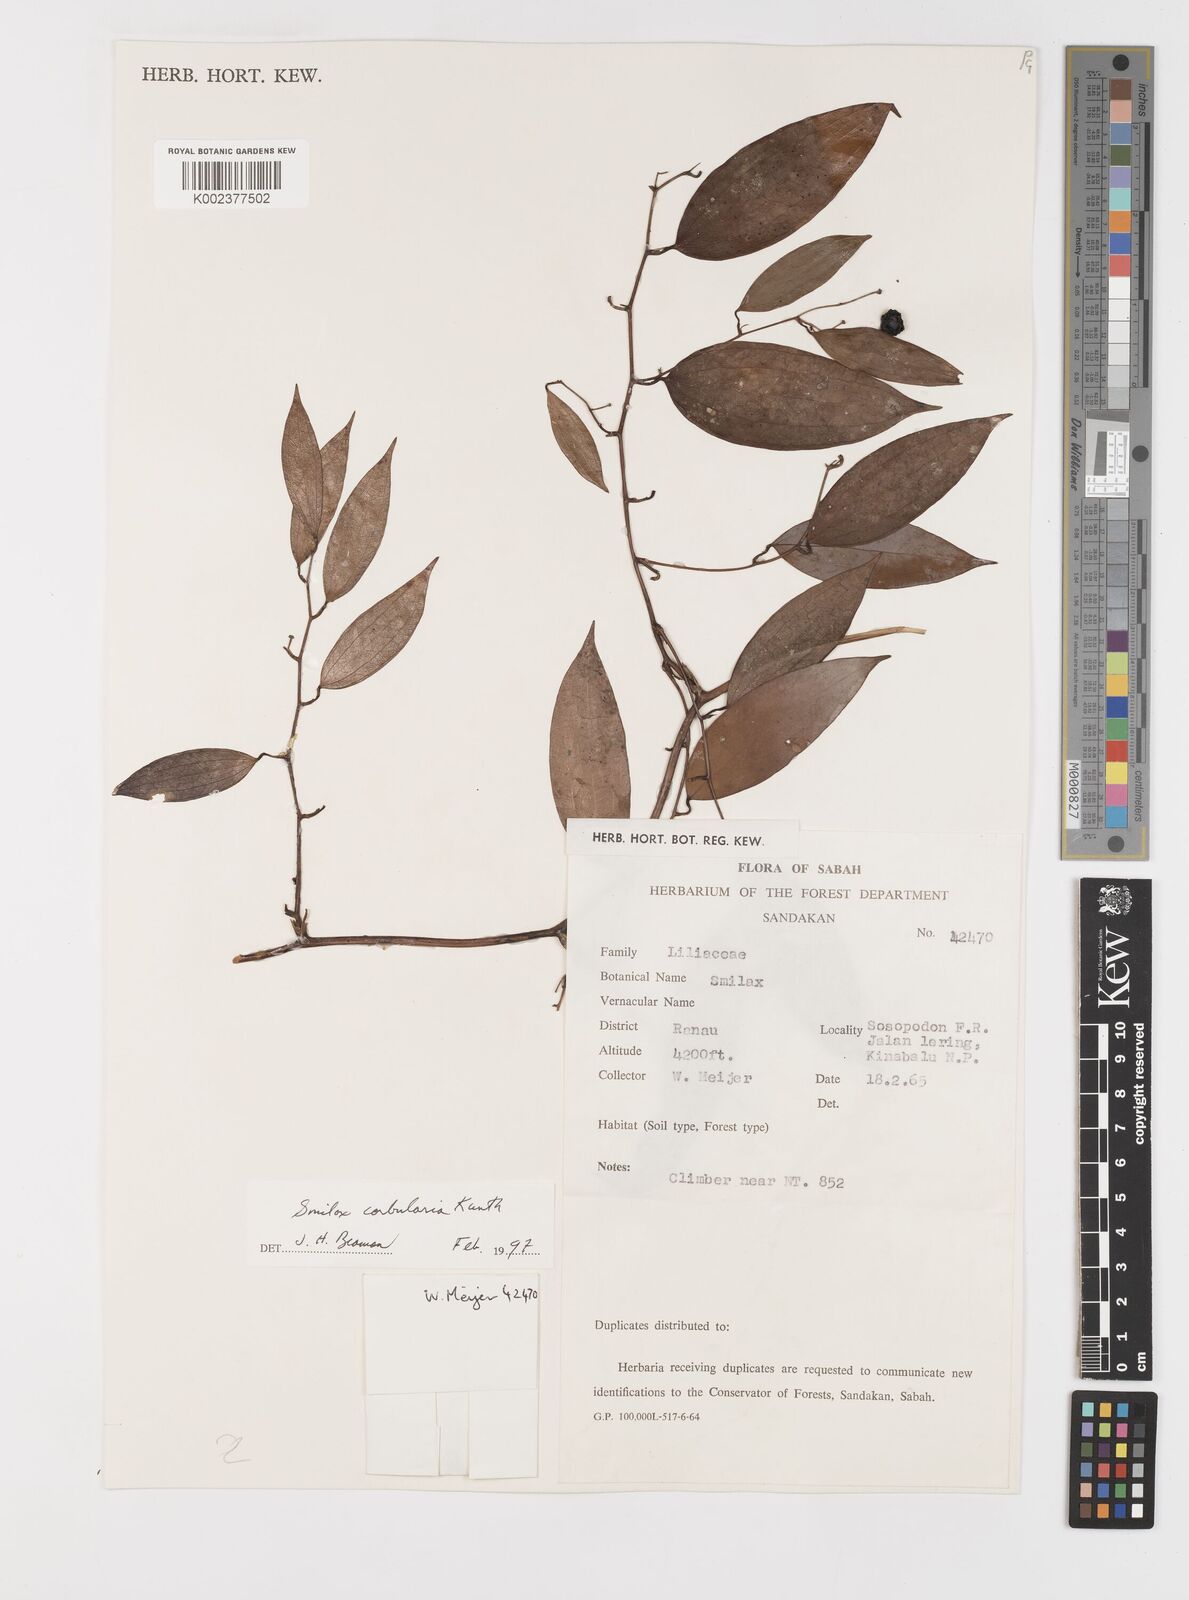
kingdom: Plantae
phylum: Tracheophyta
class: Liliopsida
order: Liliales
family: Smilacaceae
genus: Smilax
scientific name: Smilax corbularia
